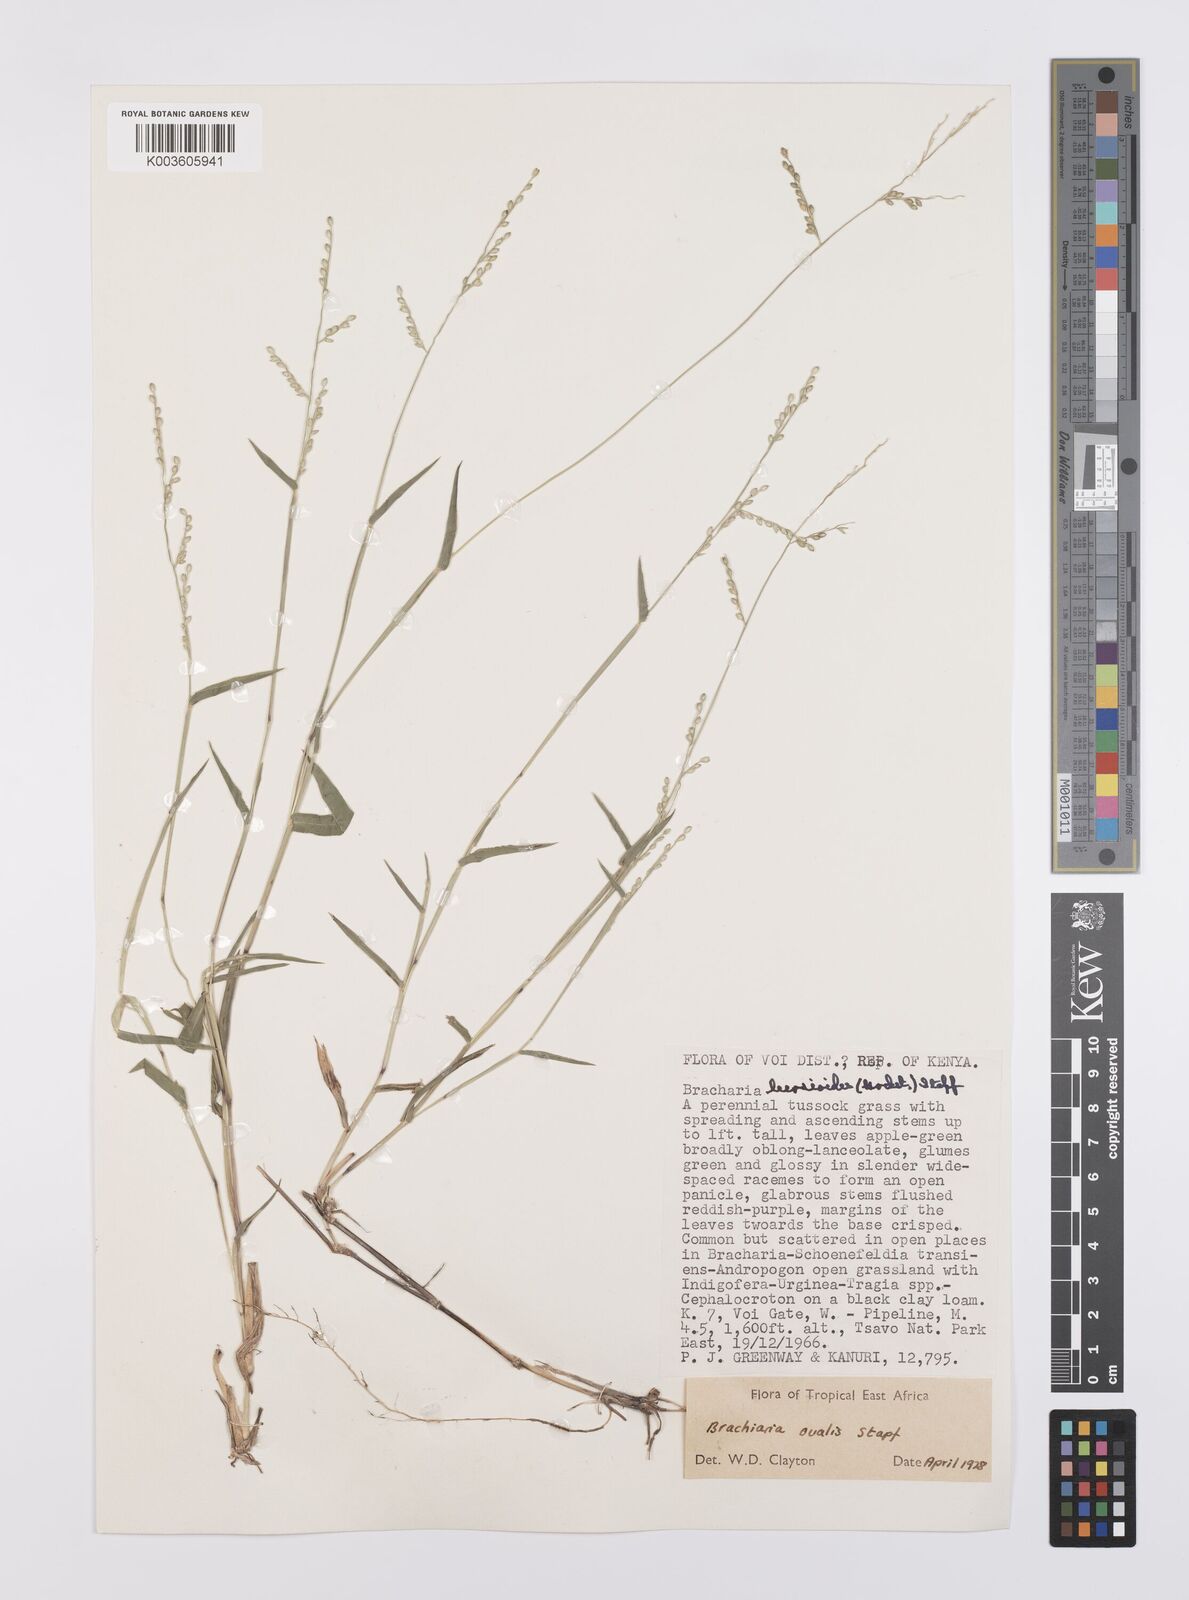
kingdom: Plantae
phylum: Tracheophyta
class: Liliopsida
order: Poales
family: Poaceae
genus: Urochloa
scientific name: Urochloa ovalis
